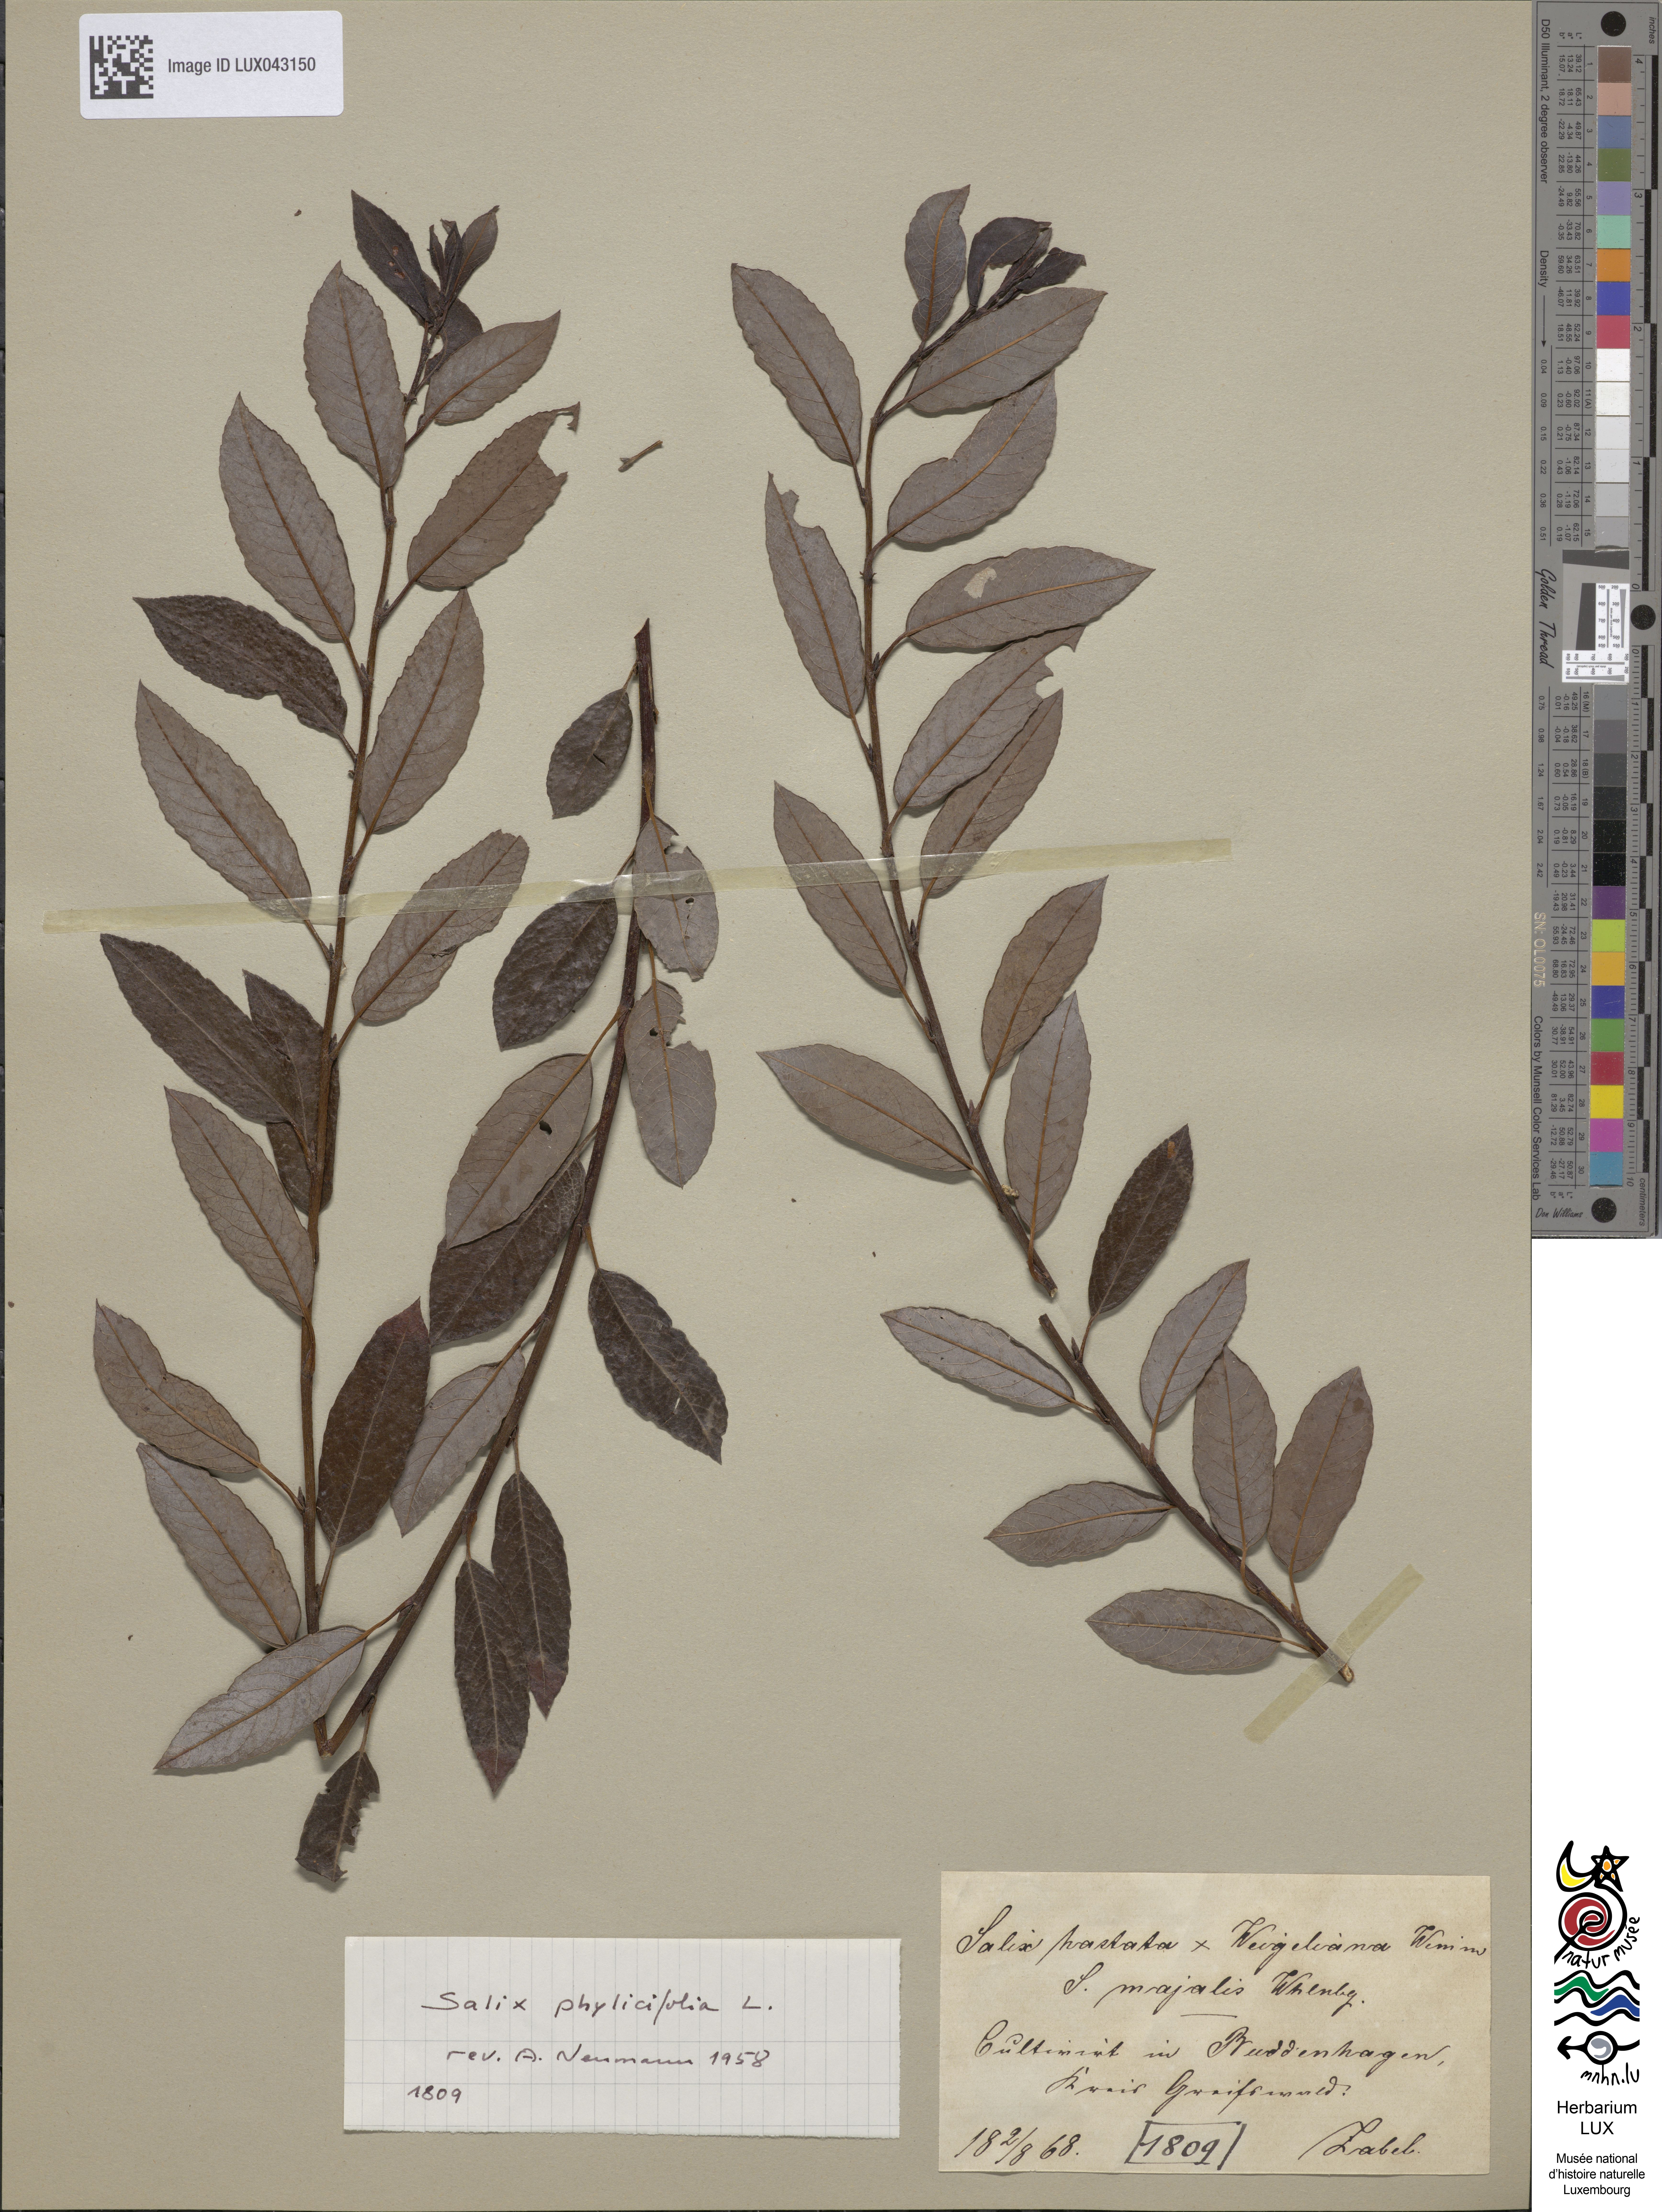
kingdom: Plantae
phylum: Tracheophyta
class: Magnoliopsida
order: Malpighiales
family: Salicaceae
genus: Salix
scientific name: Salix hastata
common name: Halberd willow
